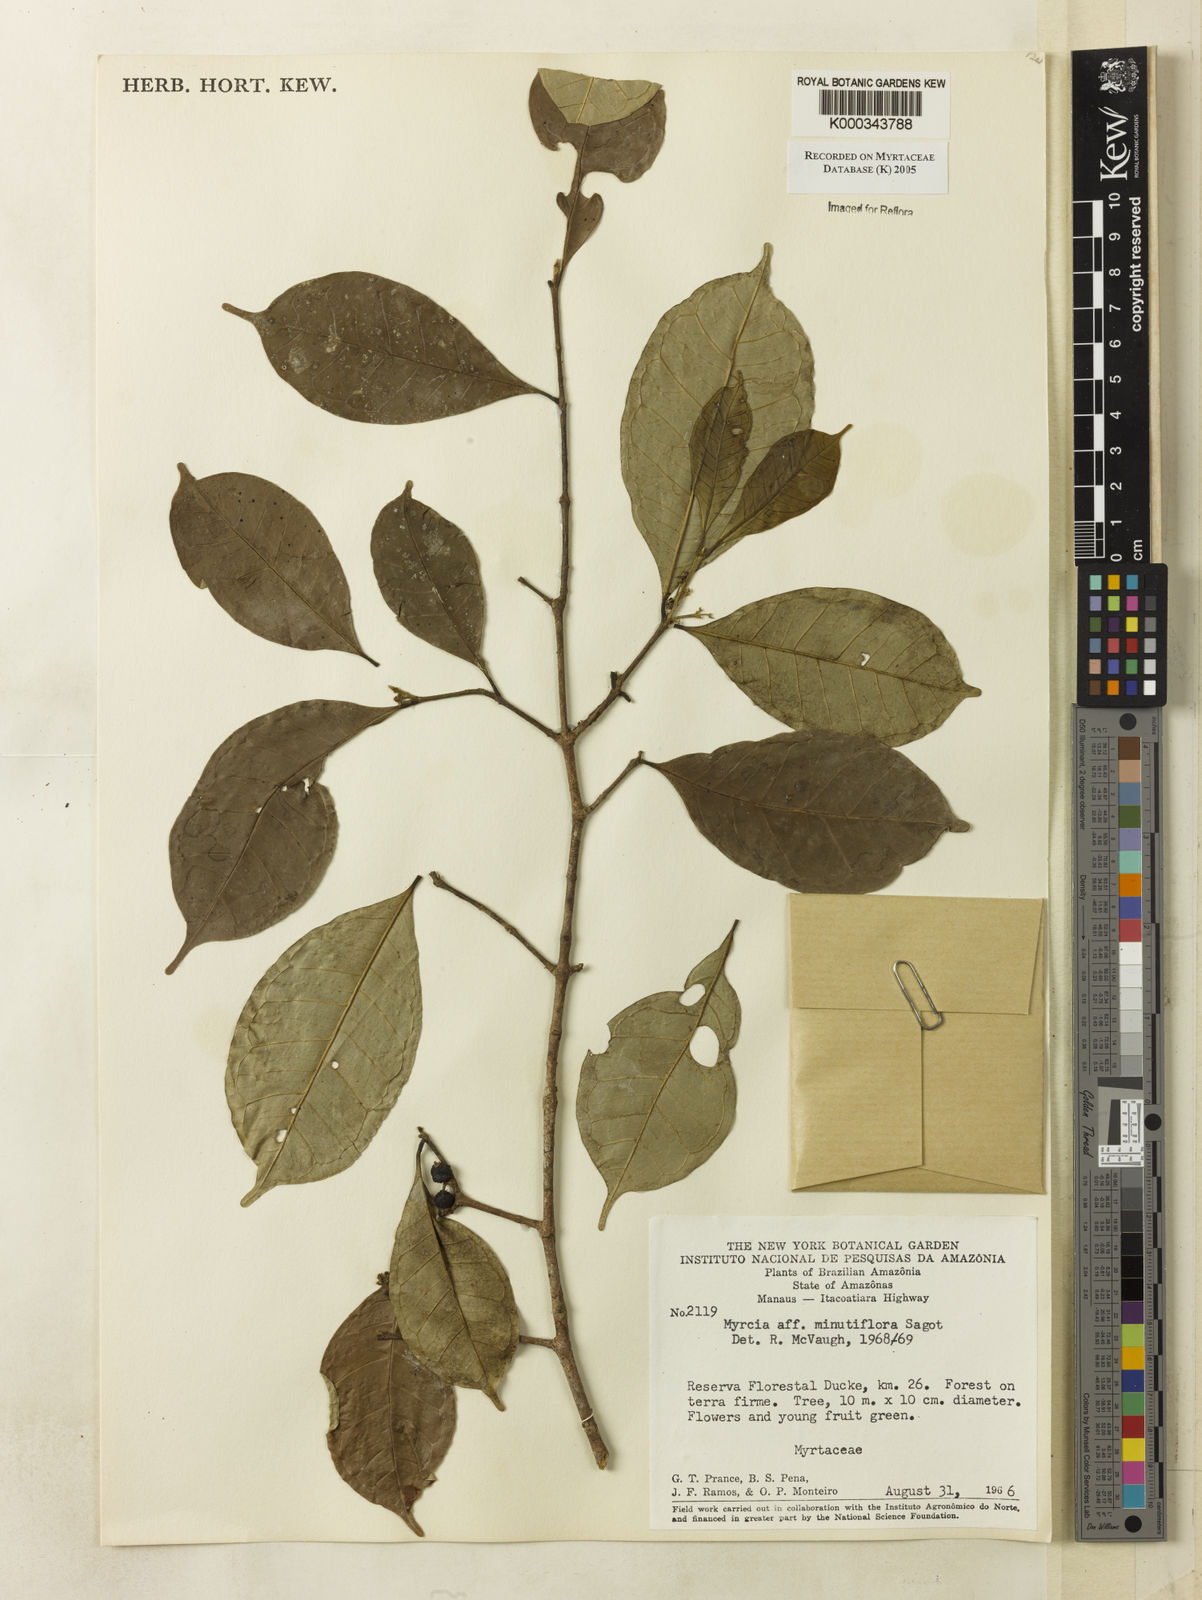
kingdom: Plantae
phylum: Tracheophyta
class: Magnoliopsida
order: Myrtales
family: Myrtaceae
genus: Myrcia
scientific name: Myrcia minutiflora
